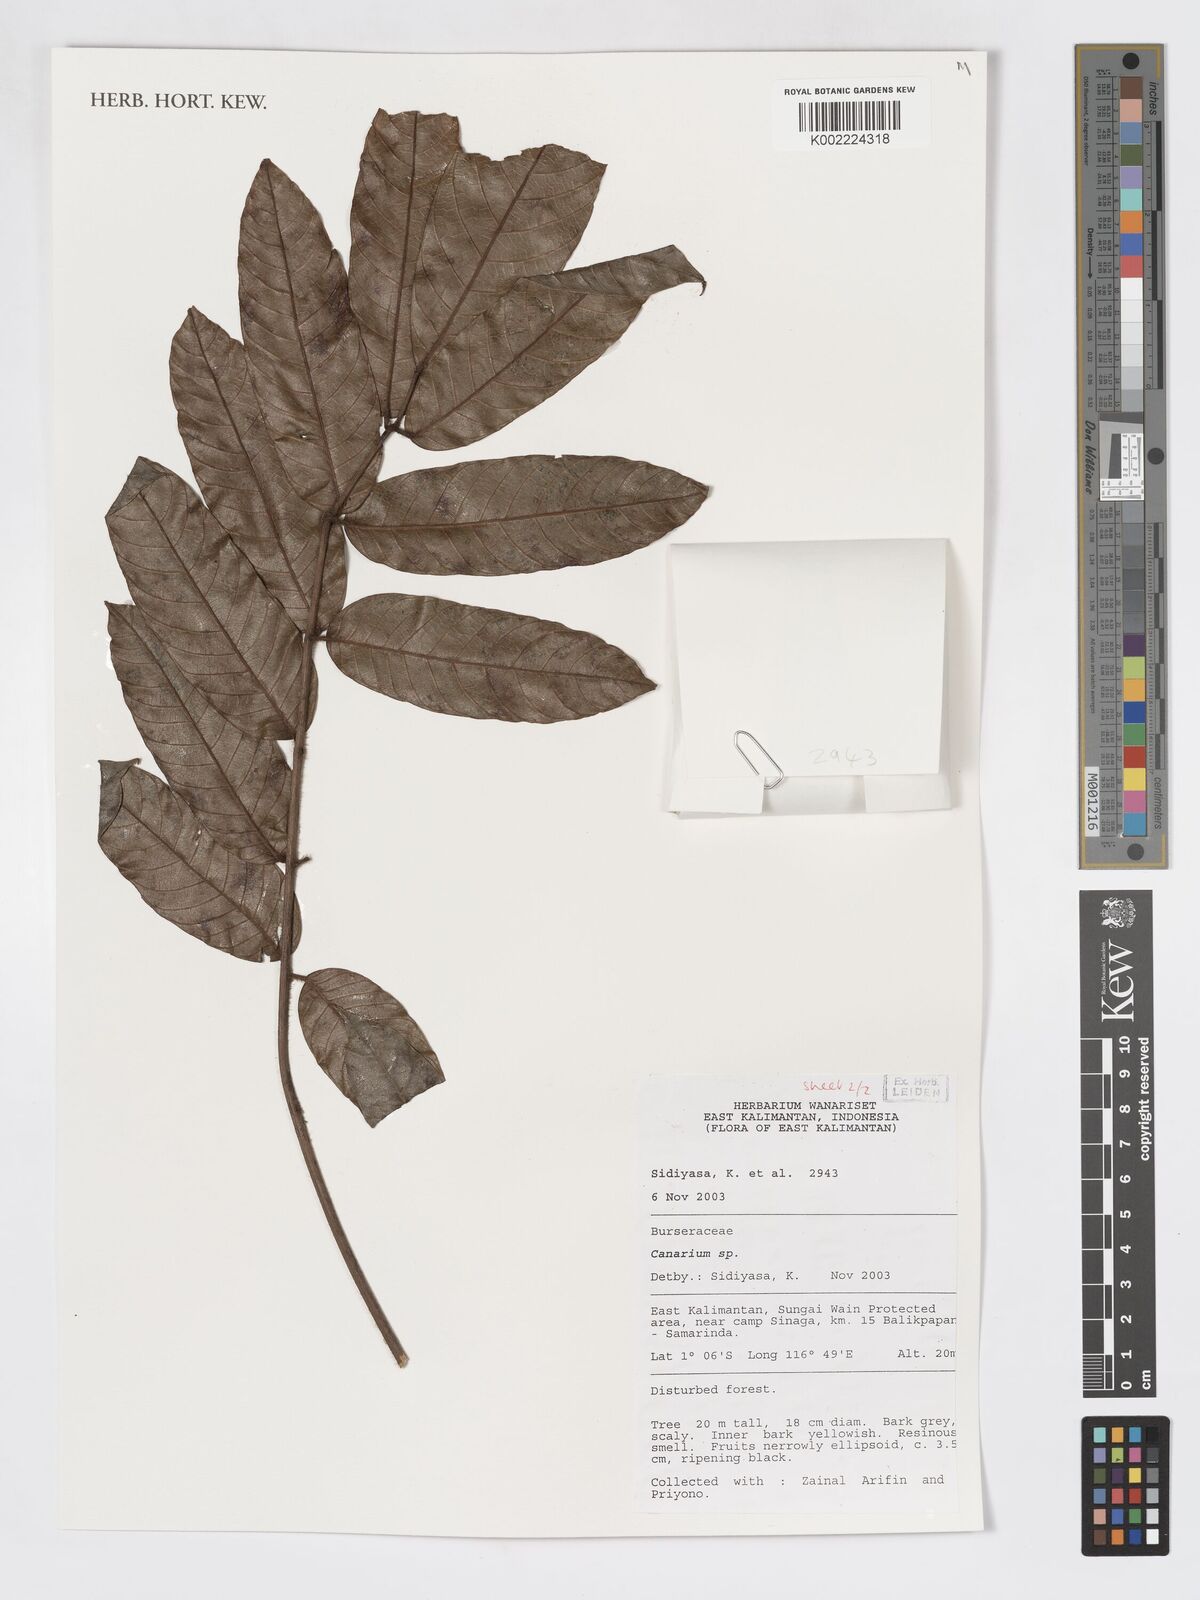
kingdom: Plantae
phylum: Tracheophyta
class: Magnoliopsida
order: Sapindales
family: Burseraceae
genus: Canarium
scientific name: Canarium
